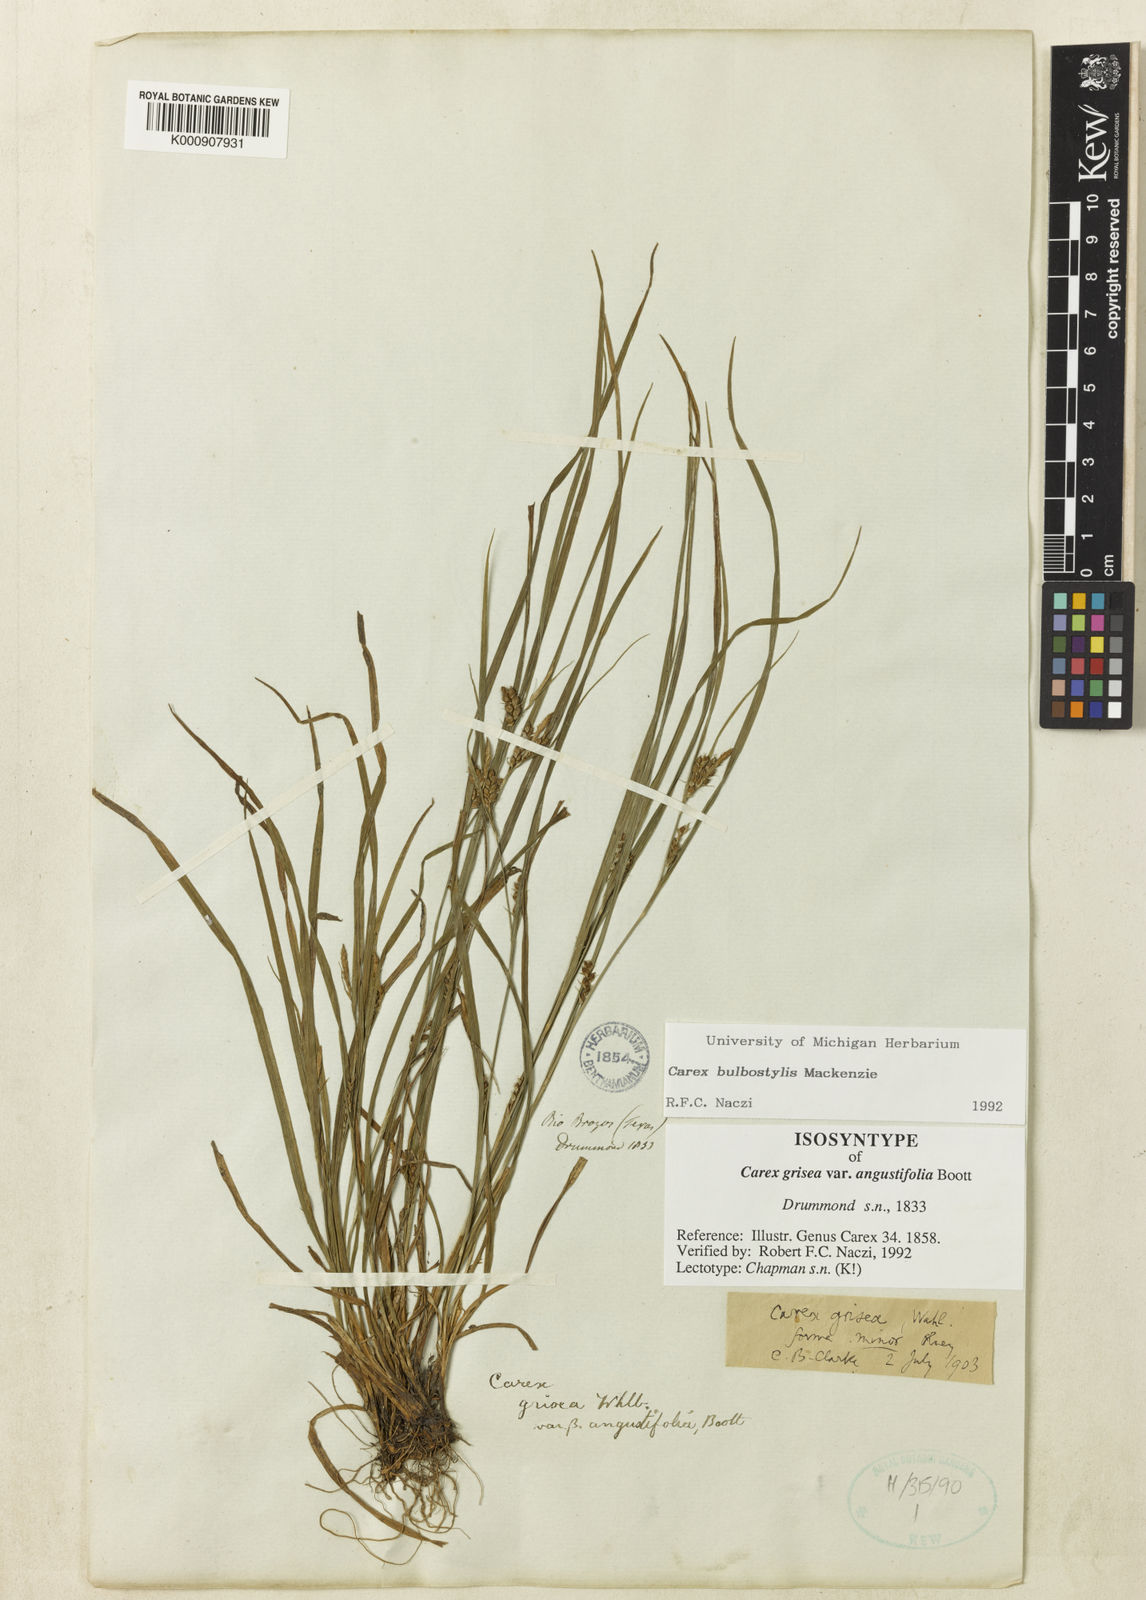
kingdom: Plantae
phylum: Tracheophyta
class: Liliopsida
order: Poales
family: Cyperaceae
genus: Carex
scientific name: Carex bulbostylis
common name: Eastern narrowleaf sedge
